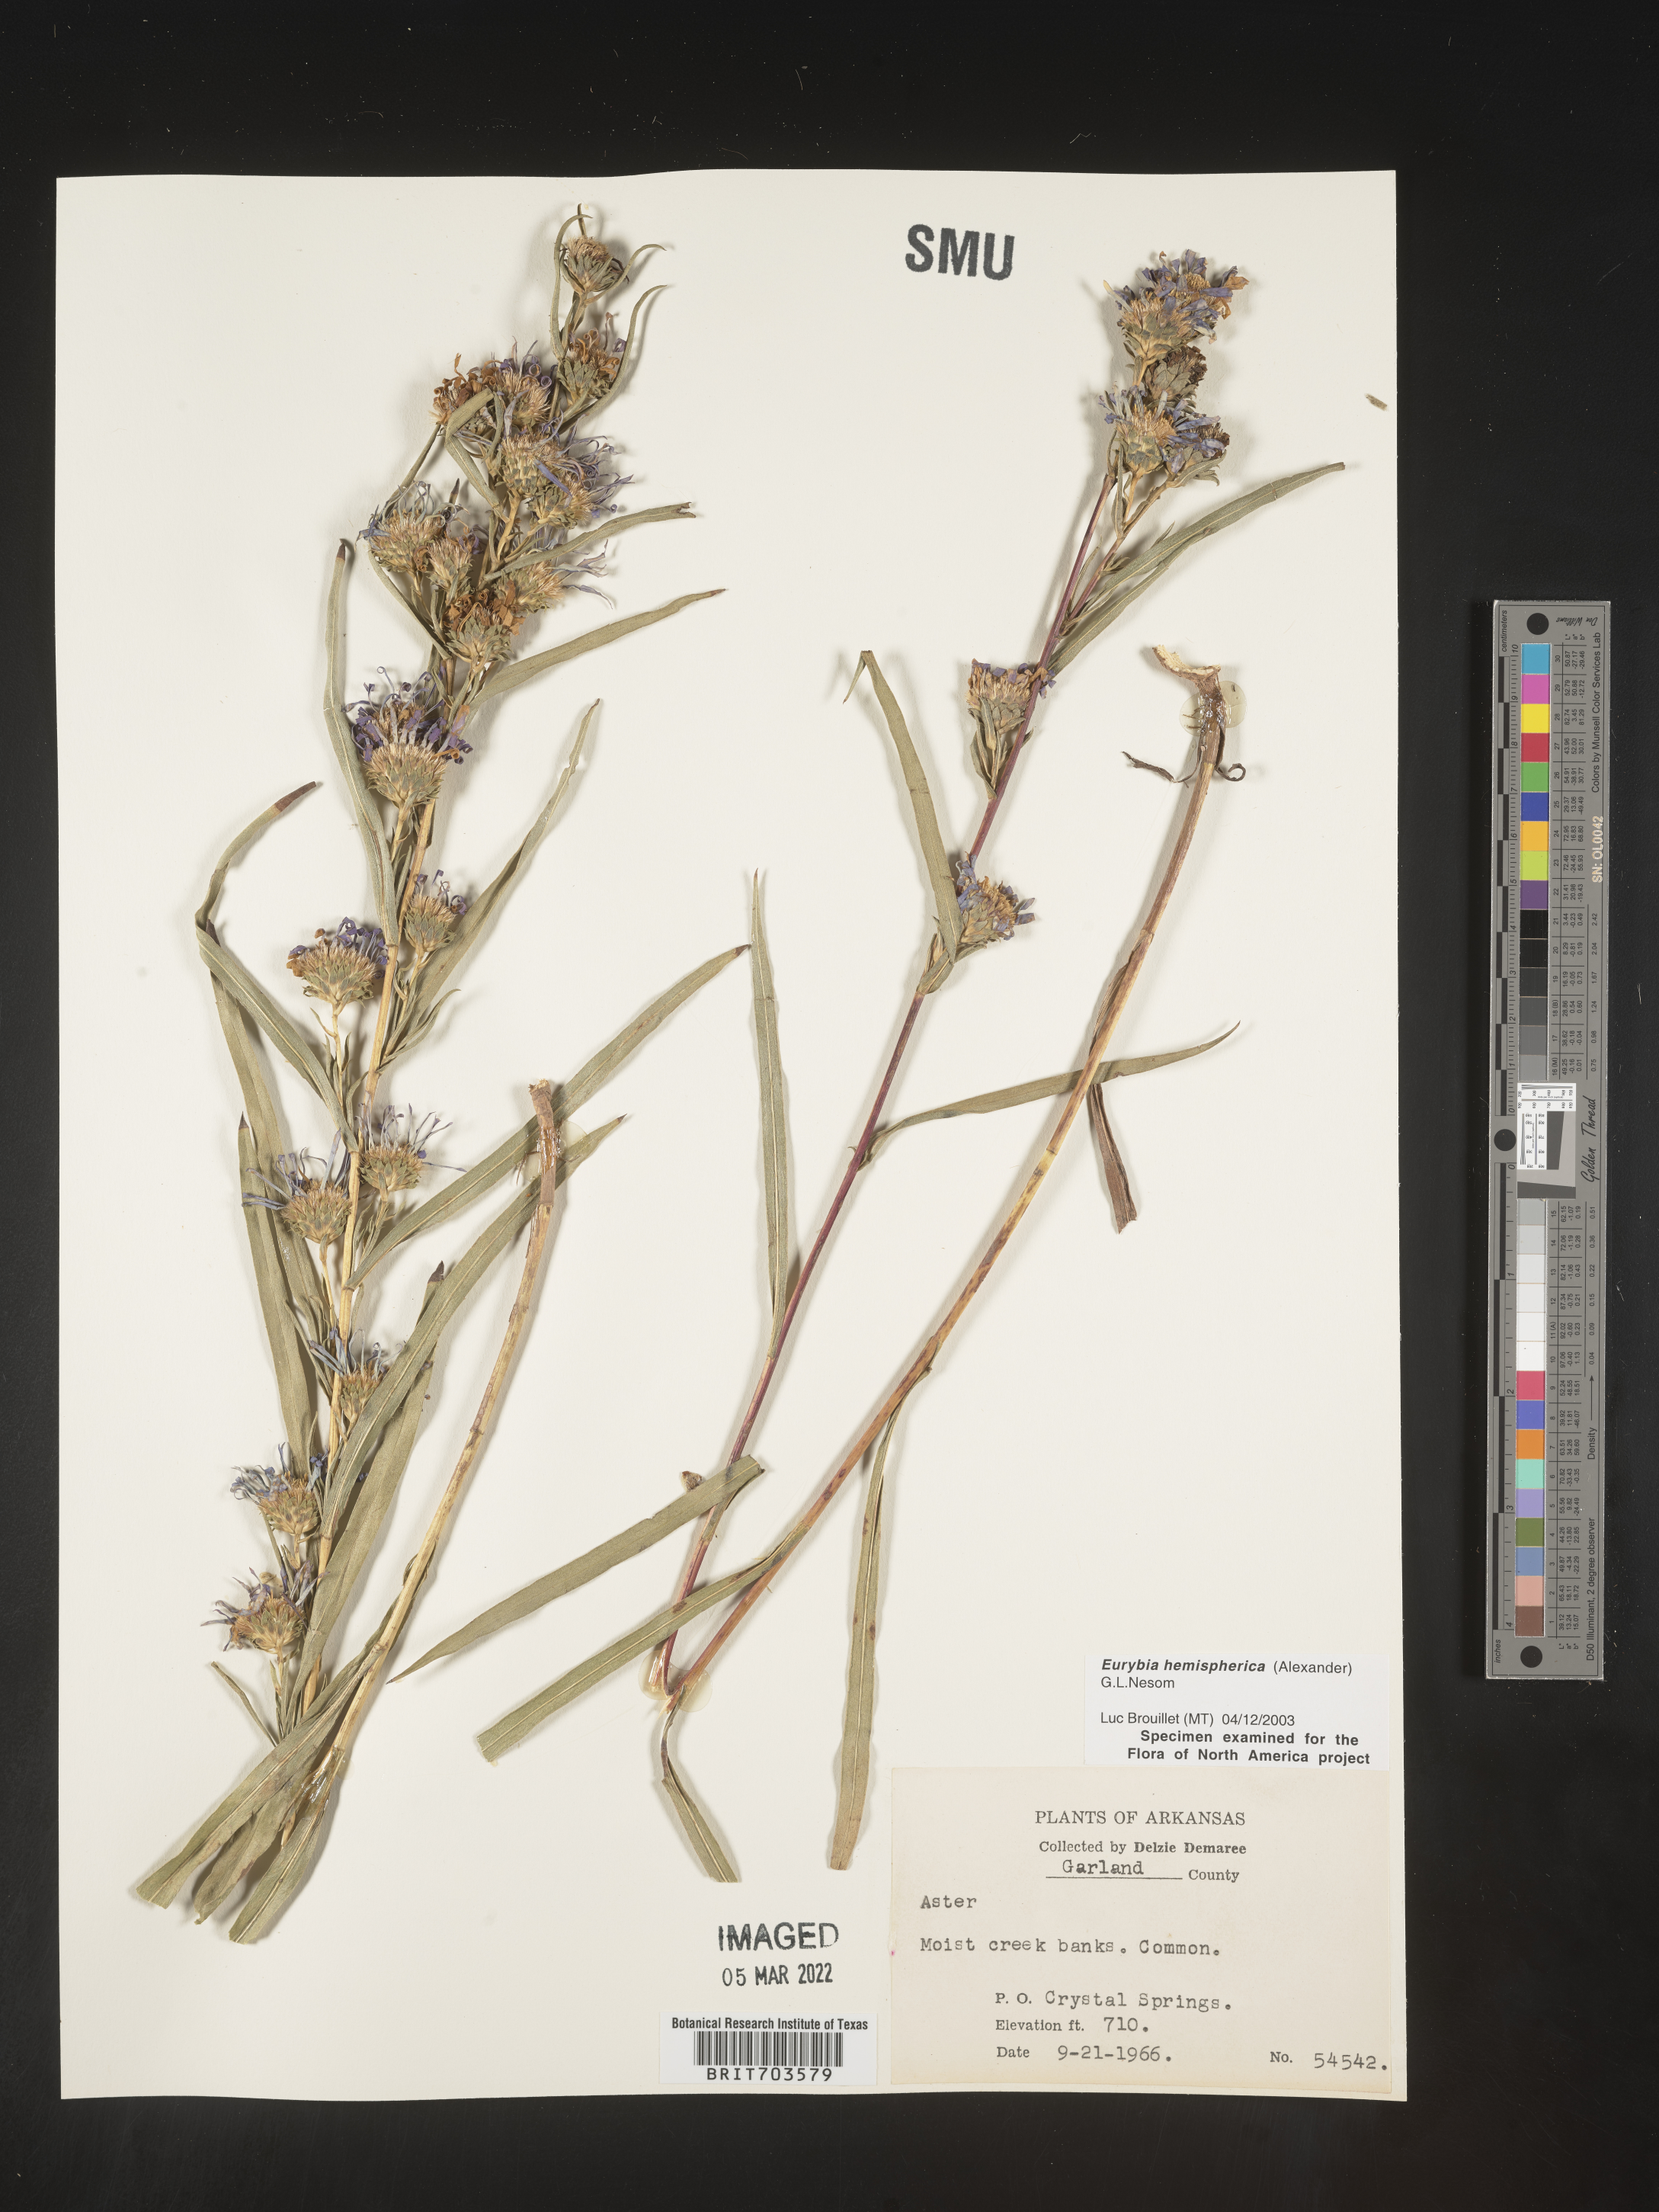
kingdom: Plantae
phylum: Tracheophyta
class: Magnoliopsida
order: Asterales
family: Asteraceae
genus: Eurybia
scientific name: Eurybia hemispherica
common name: Showy aster
